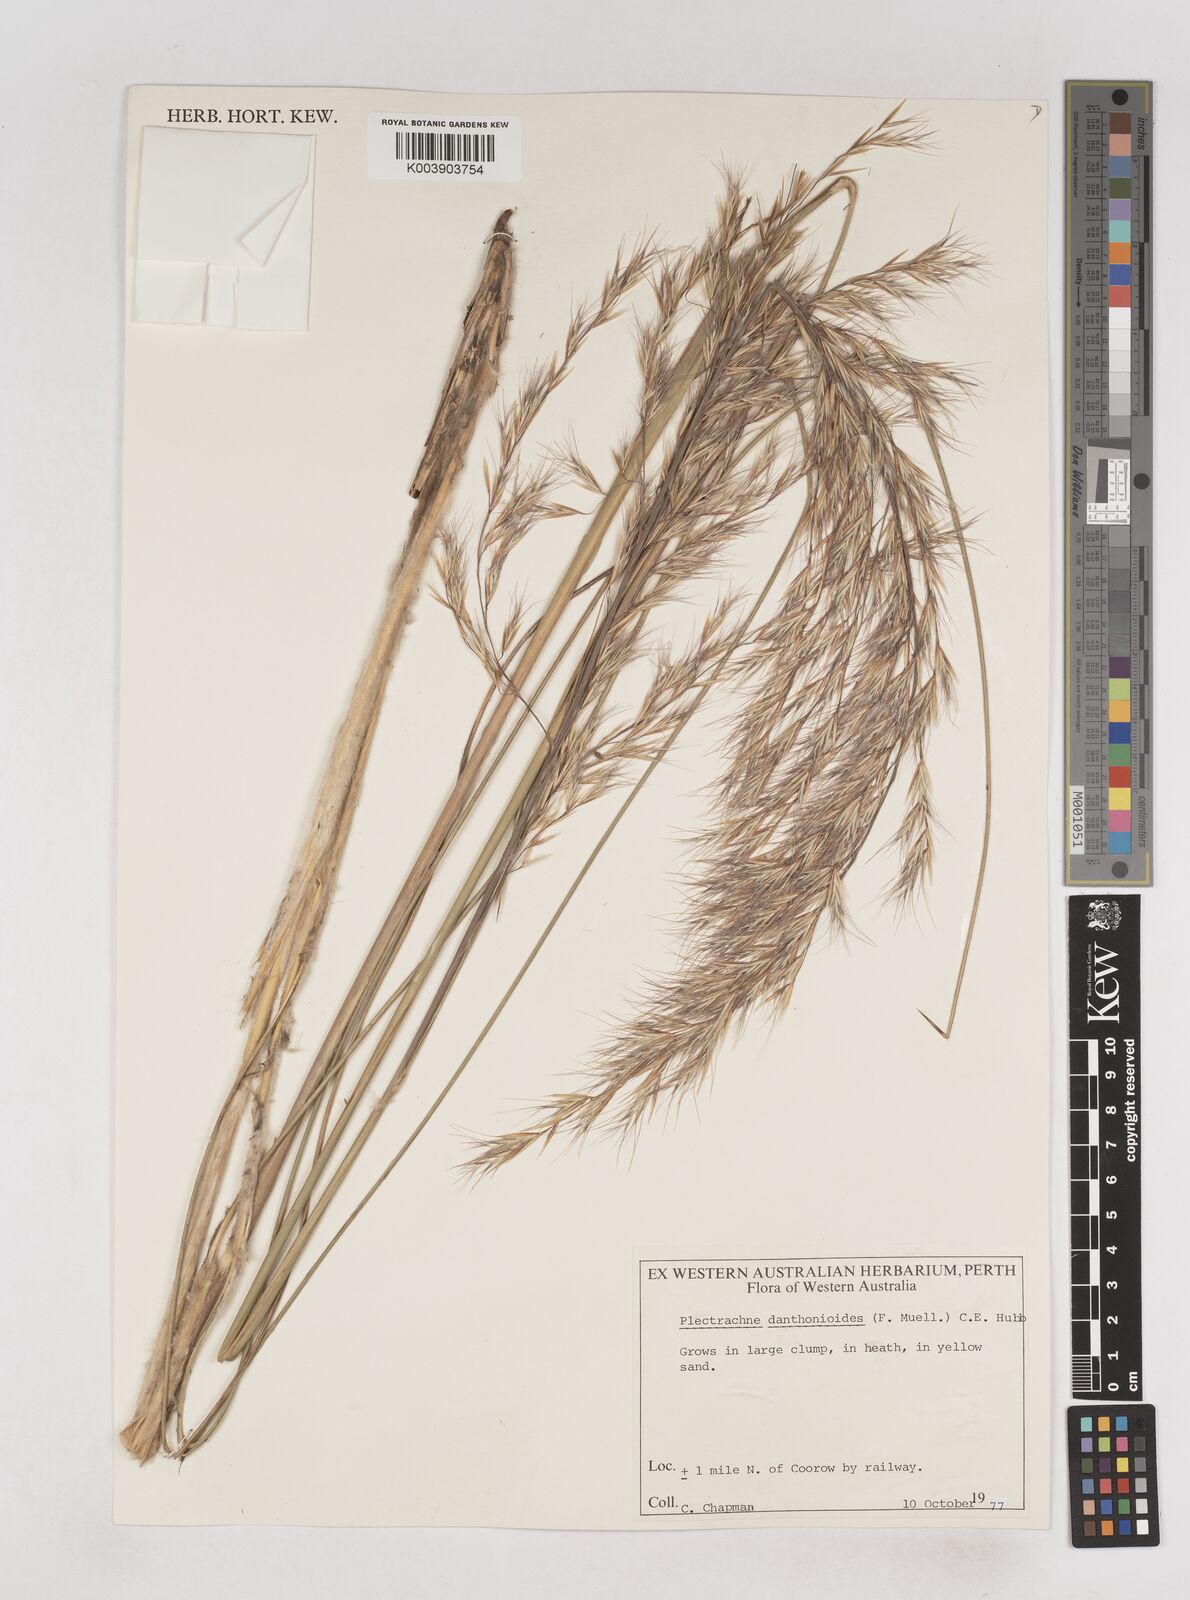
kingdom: Plantae
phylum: Tracheophyta
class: Liliopsida
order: Poales
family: Poaceae
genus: Triodia
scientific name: Triodia danthonioides
